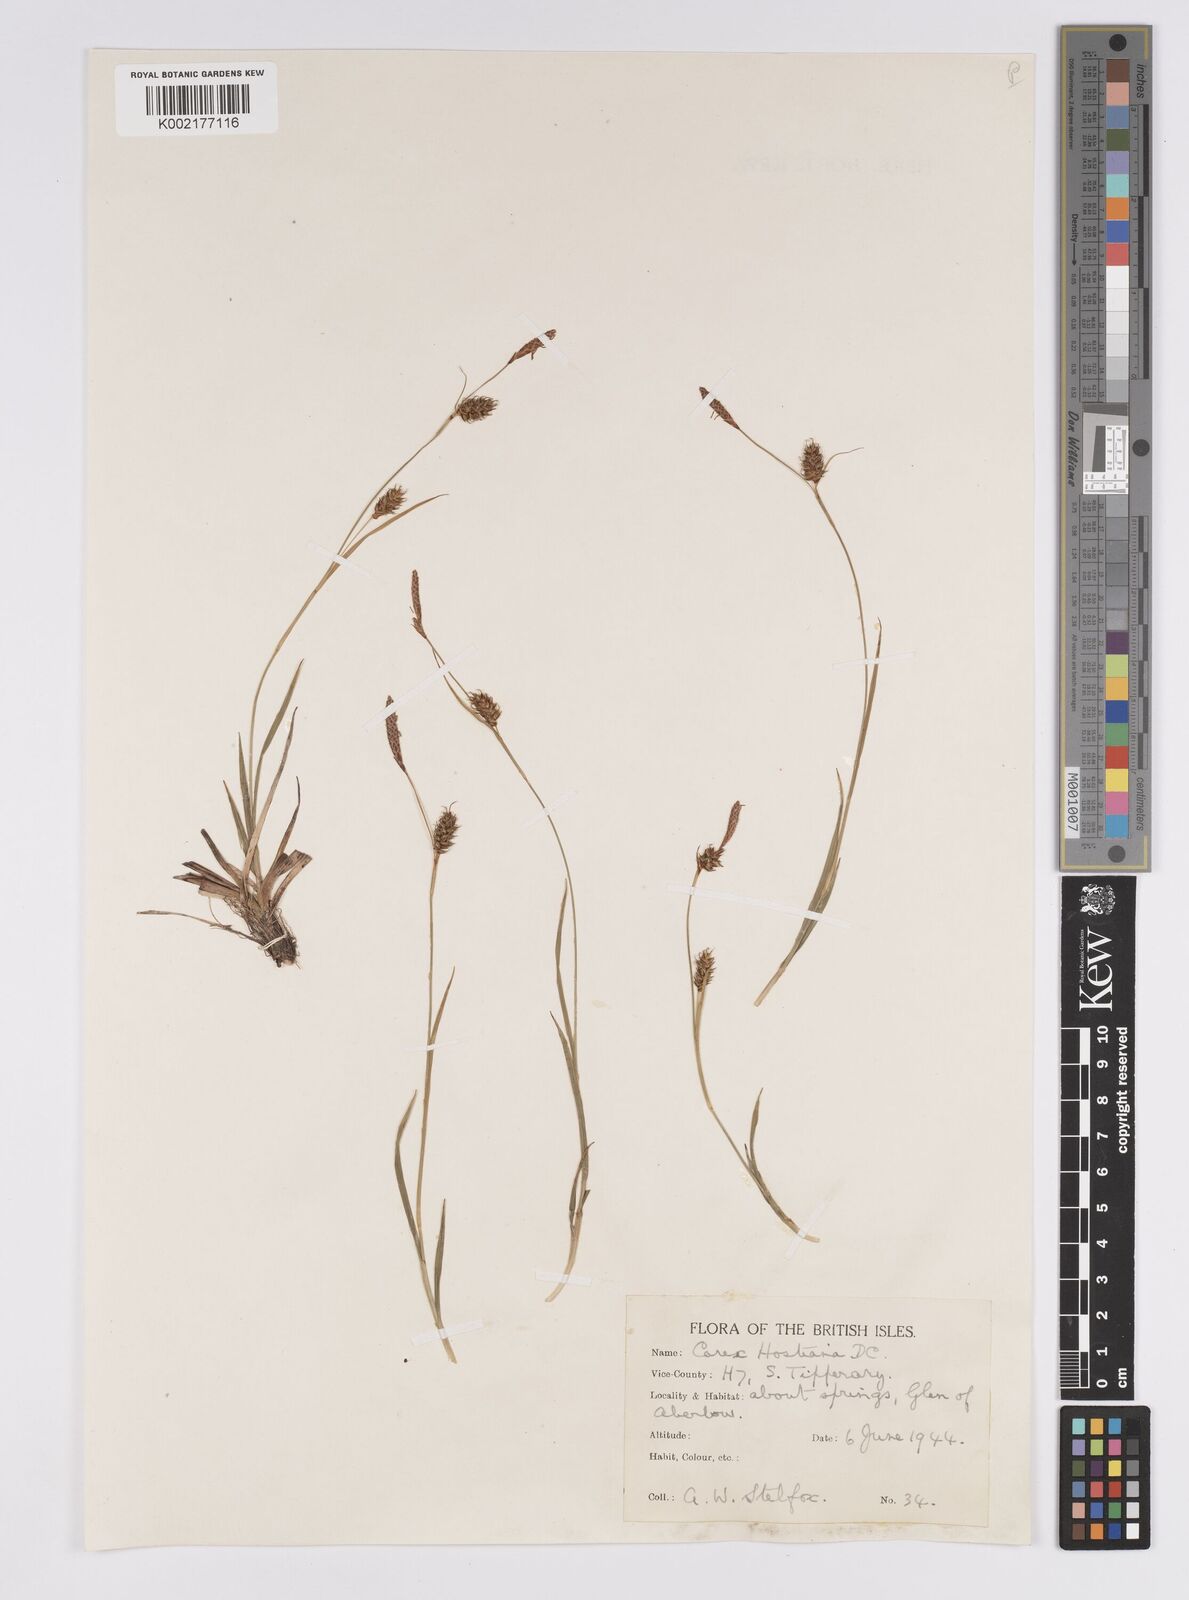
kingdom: Plantae
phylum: Tracheophyta
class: Liliopsida
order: Poales
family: Cyperaceae
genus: Carex
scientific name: Carex hostiana
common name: Tawny sedge
